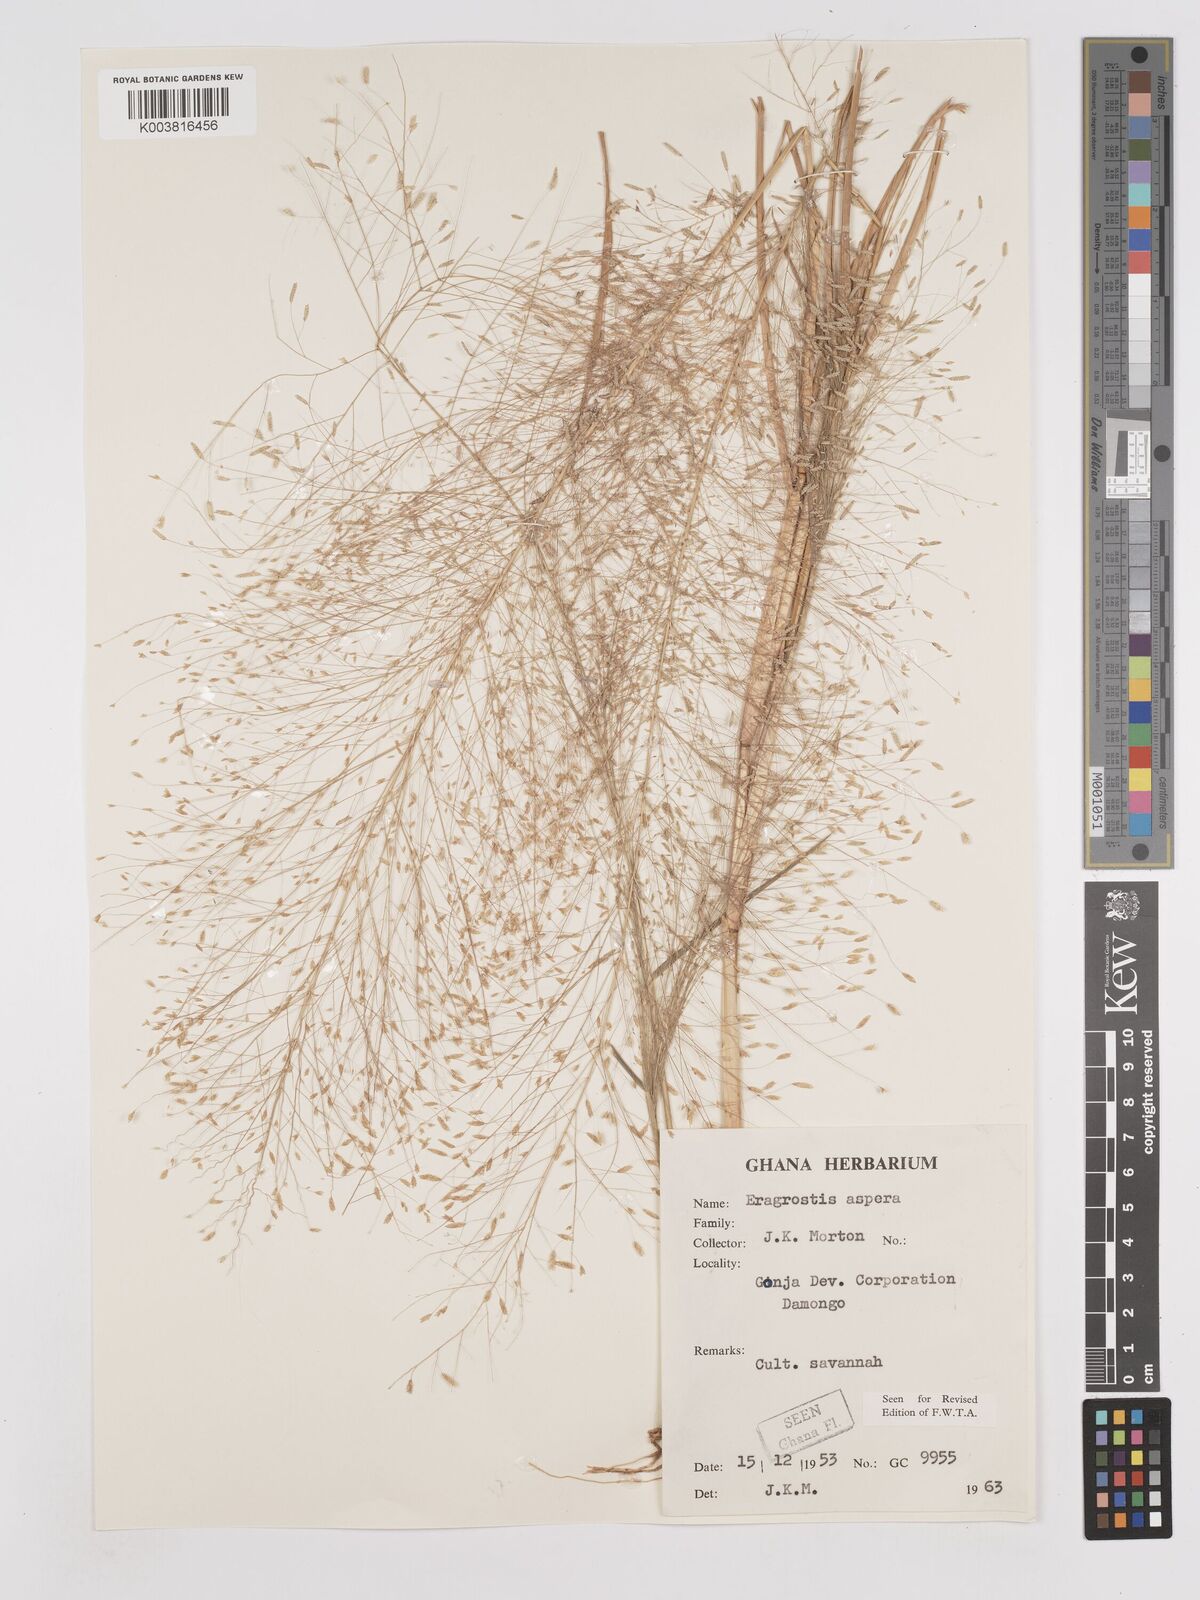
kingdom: Plantae
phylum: Tracheophyta
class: Liliopsida
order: Poales
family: Poaceae
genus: Eragrostis
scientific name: Eragrostis aspera
